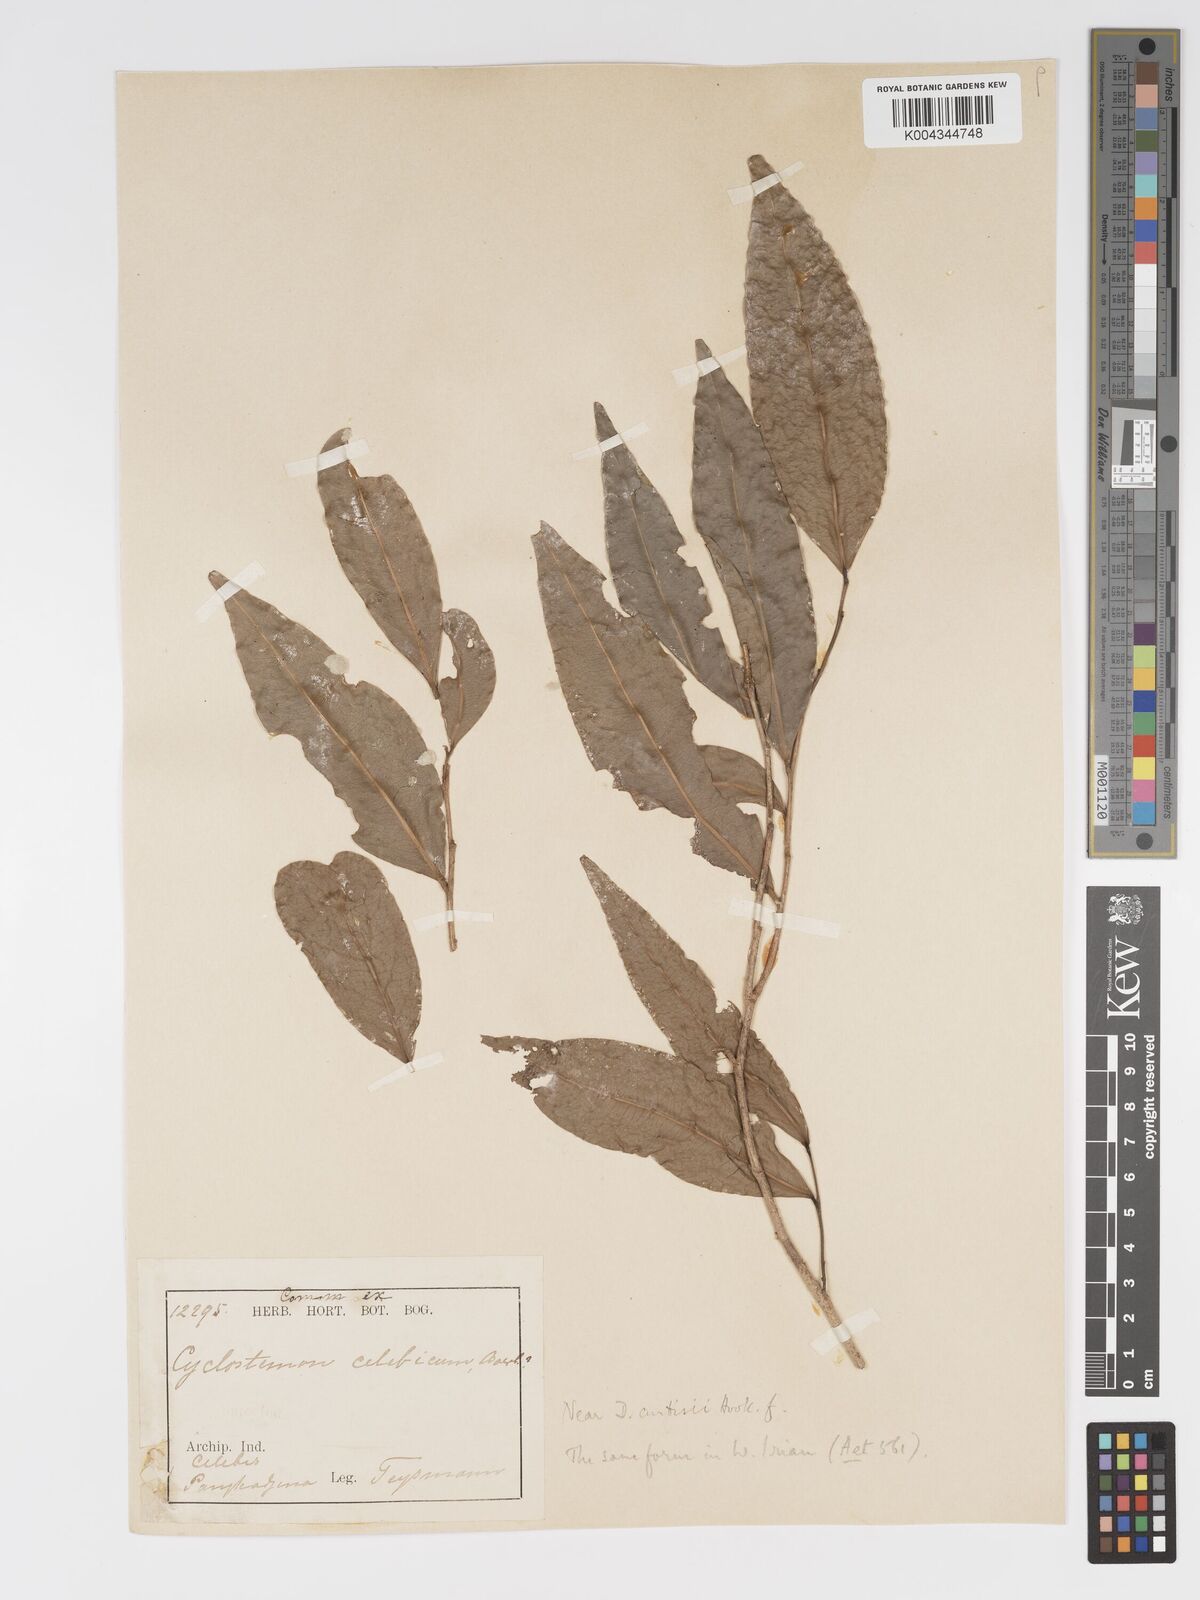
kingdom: Plantae
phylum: Tracheophyta
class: Magnoliopsida
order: Malpighiales
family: Putranjivaceae
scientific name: Putranjivaceae
